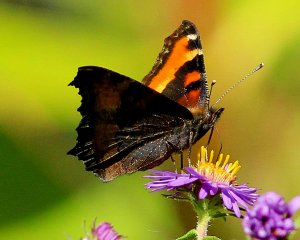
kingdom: Animalia
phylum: Arthropoda
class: Insecta
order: Lepidoptera
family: Nymphalidae
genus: Aglais
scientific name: Aglais milberti
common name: Milbert's Tortoiseshell
